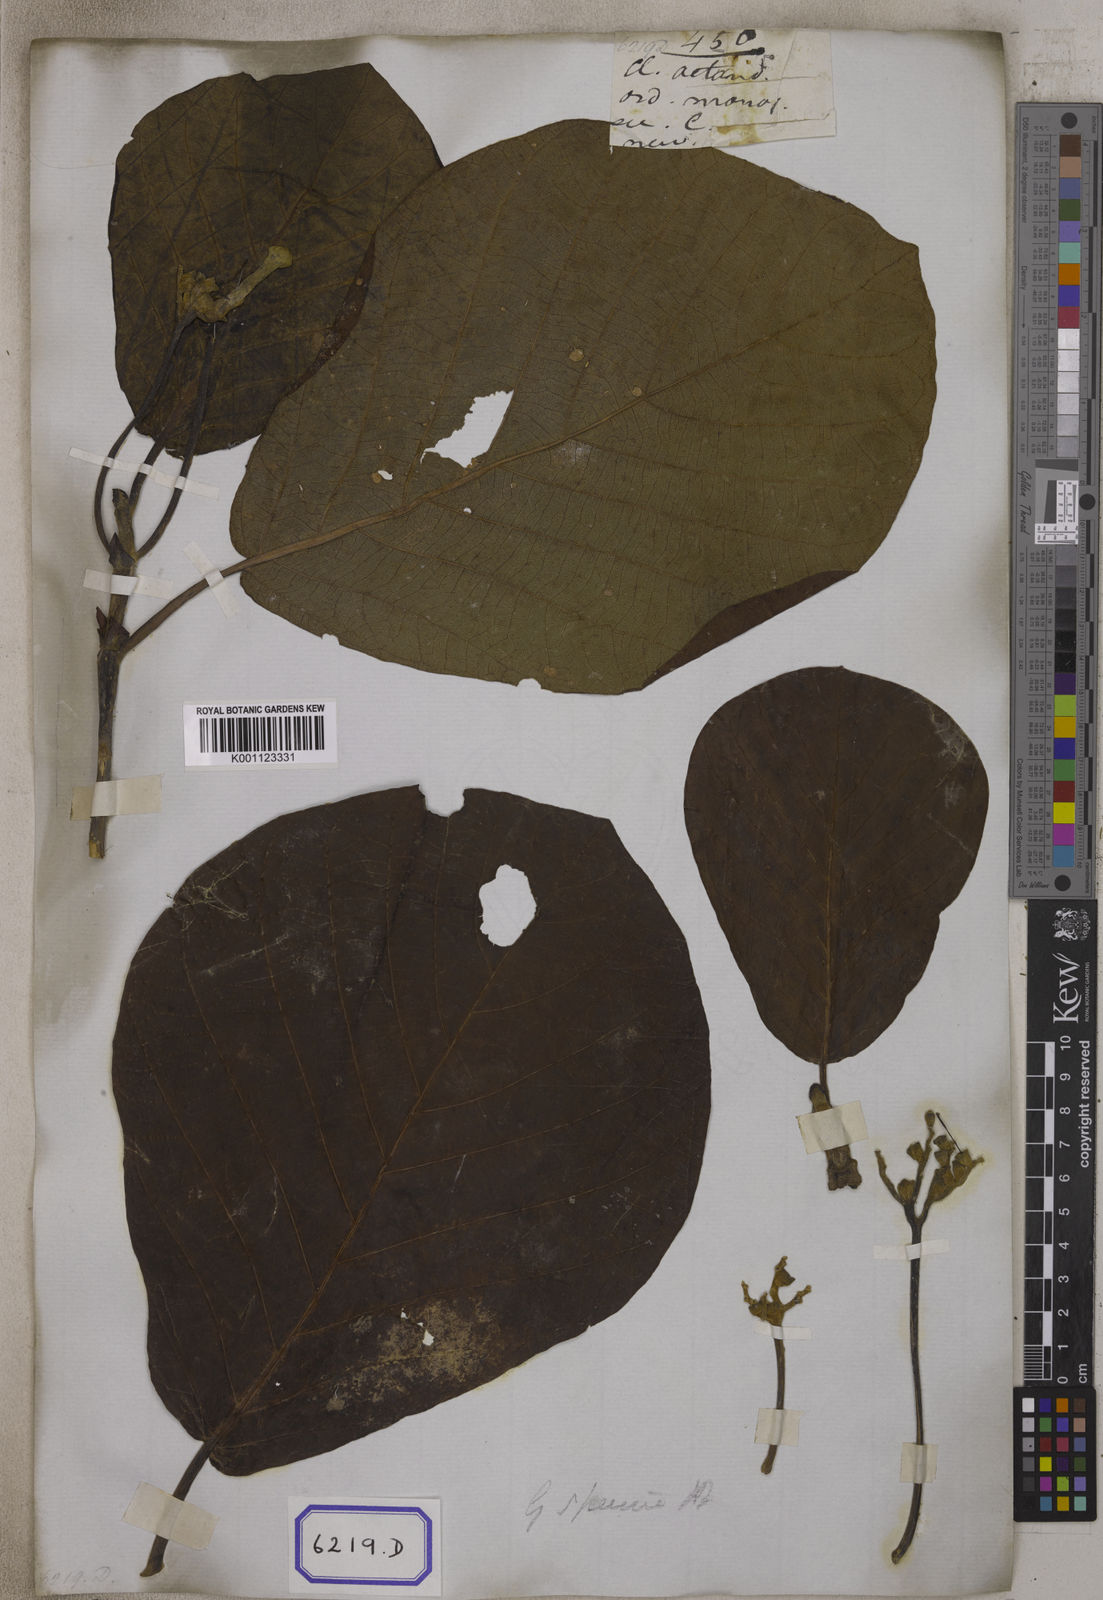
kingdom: Plantae
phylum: Tracheophyta
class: Magnoliopsida
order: Gentianales
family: Rubiaceae
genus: Guettarda
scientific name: Guettarda speciosa
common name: Sea randa
